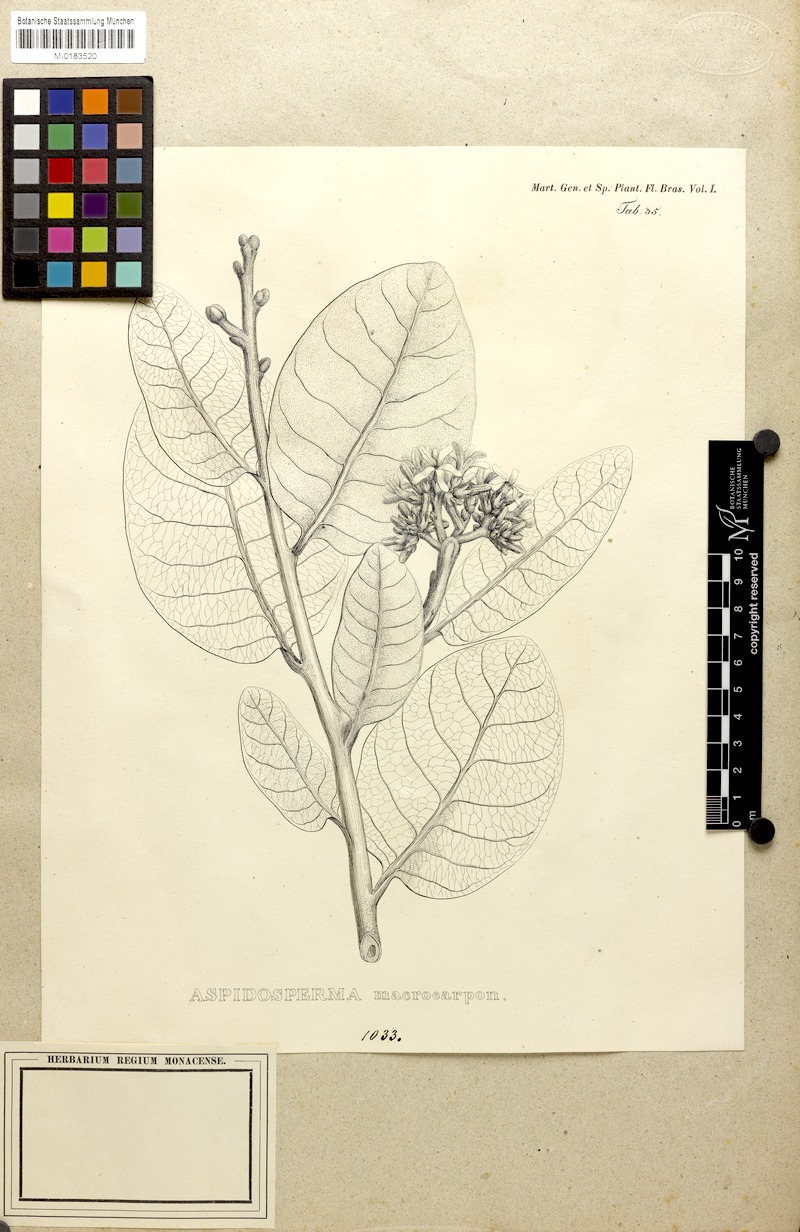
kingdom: Plantae
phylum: Tracheophyta
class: Magnoliopsida
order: Gentianales
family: Apocynaceae
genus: Aspidosperma
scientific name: Aspidosperma macrocarpon
